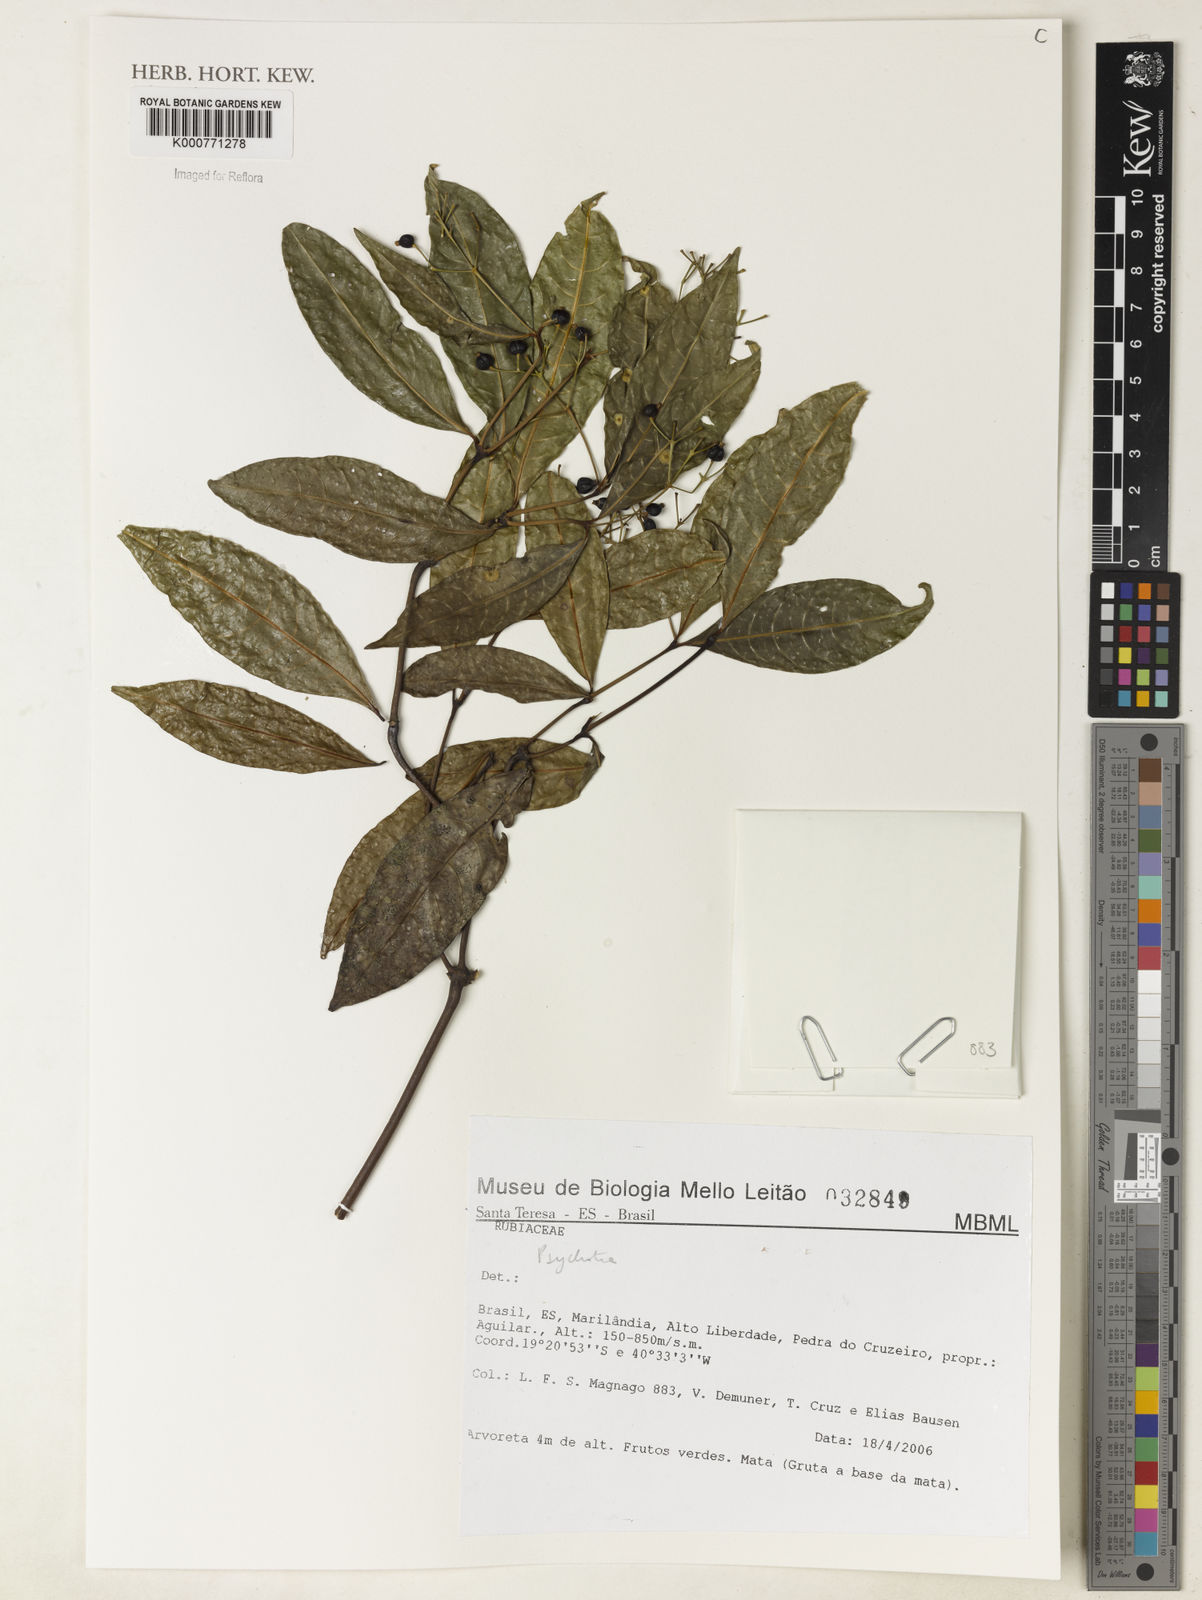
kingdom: Plantae
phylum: Tracheophyta
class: Magnoliopsida
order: Gentianales
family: Rubiaceae
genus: Psychotria
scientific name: Psychotria
